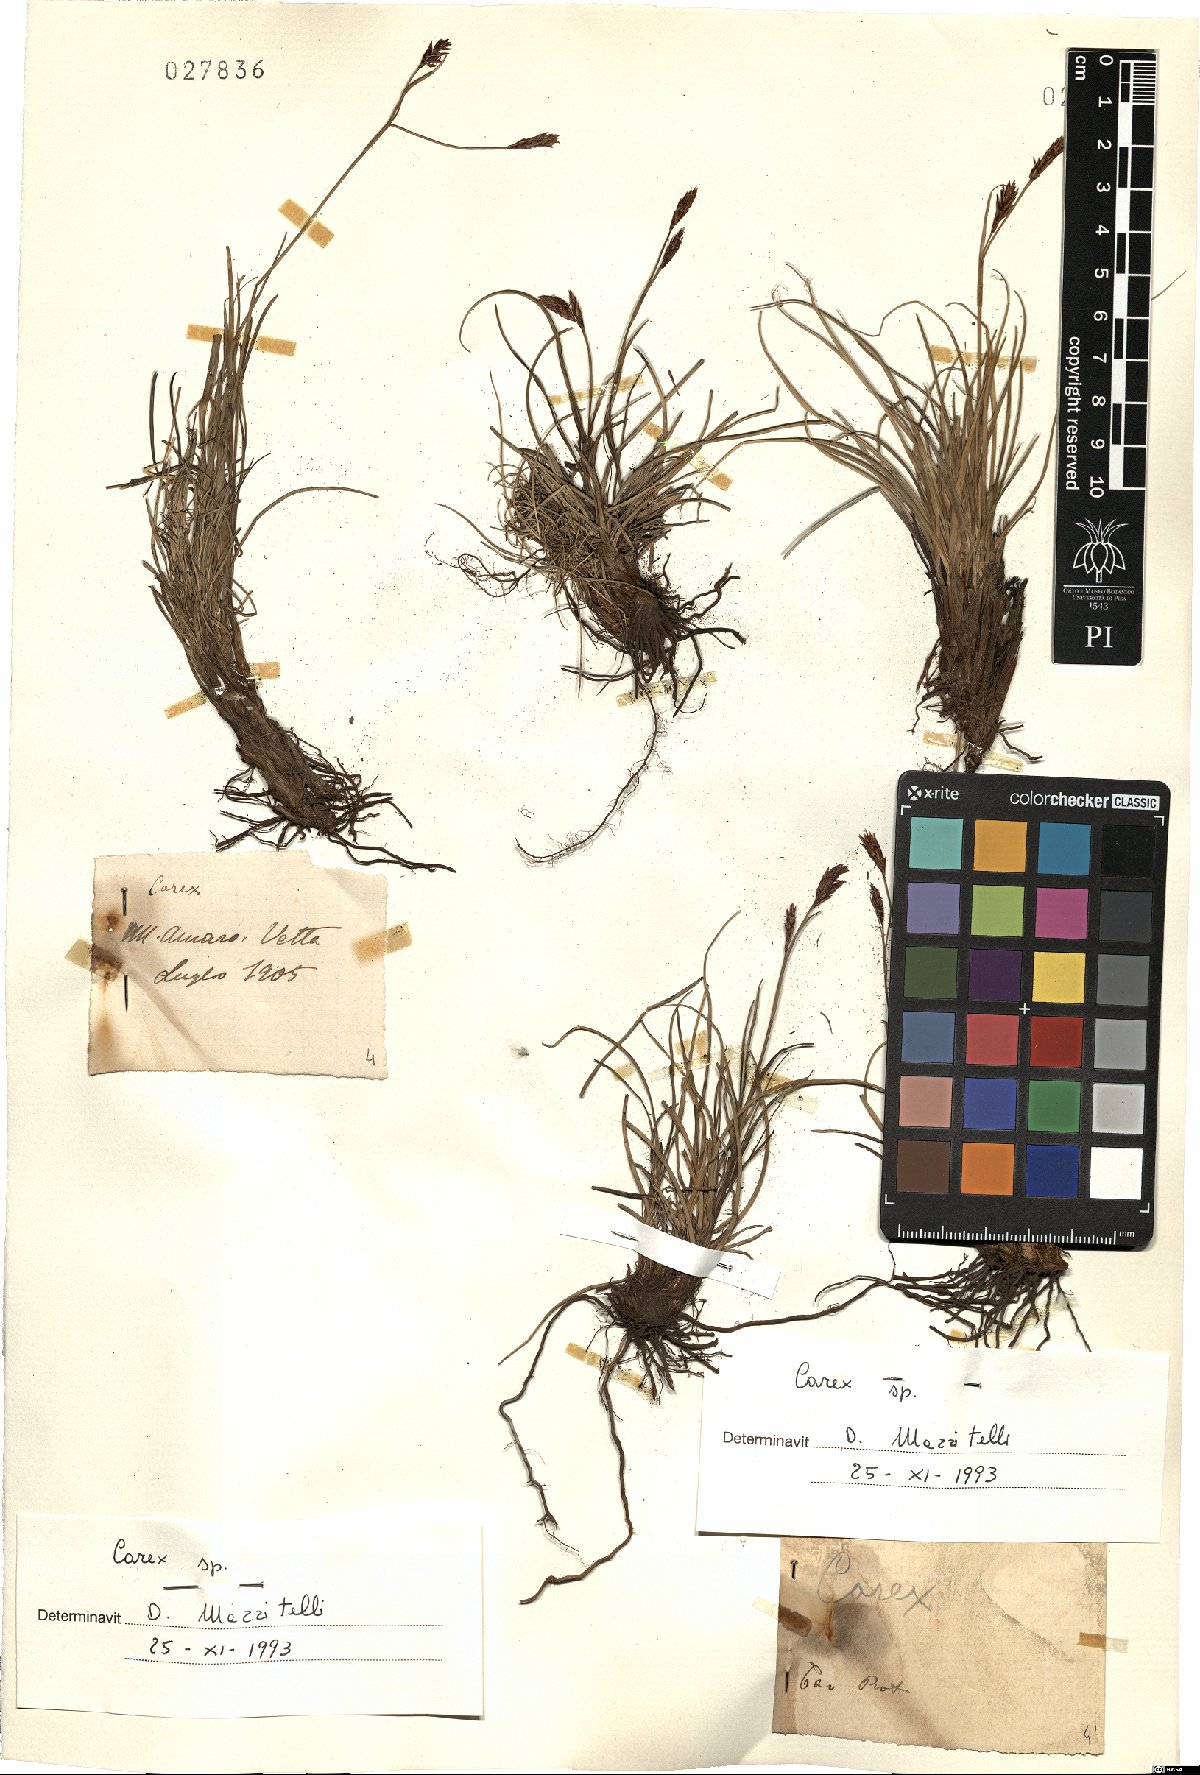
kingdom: Plantae
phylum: Tracheophyta
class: Liliopsida
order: Poales
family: Cyperaceae
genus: Carex
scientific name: Carex
